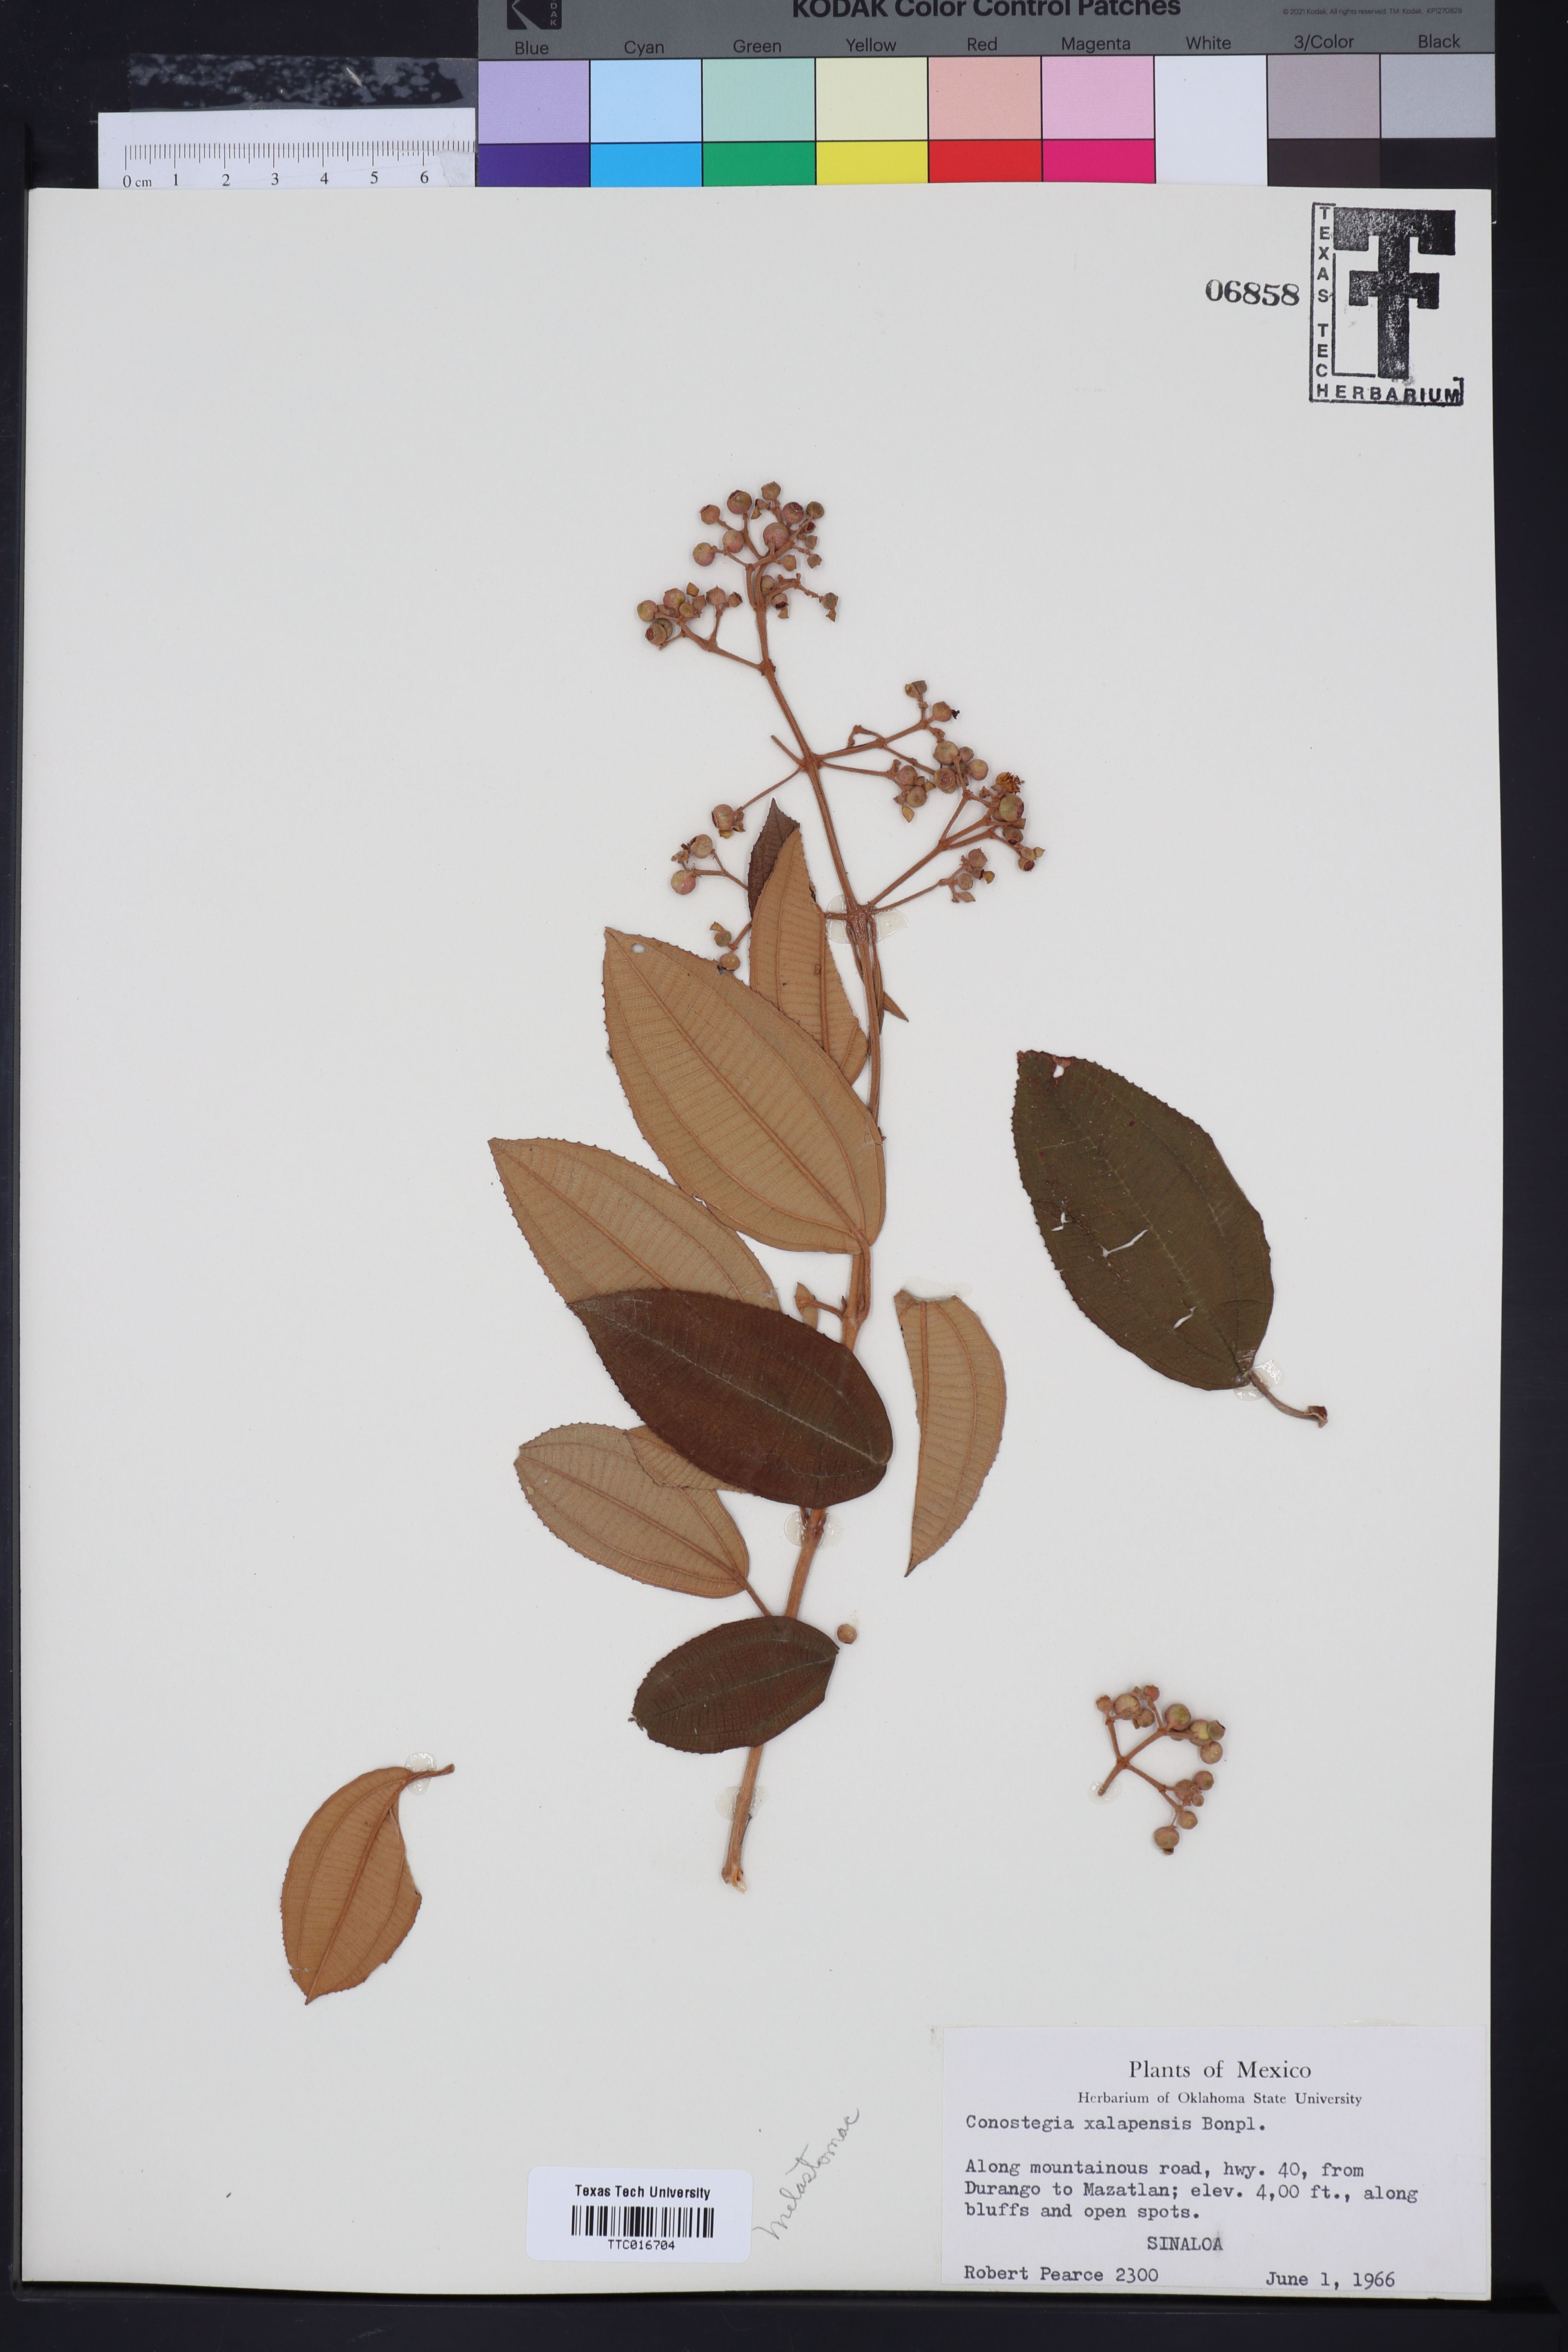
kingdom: Plantae
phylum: Tracheophyta
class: Magnoliopsida
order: Myrtales
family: Melastomataceae
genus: Miconia
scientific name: Miconia xalapensis
